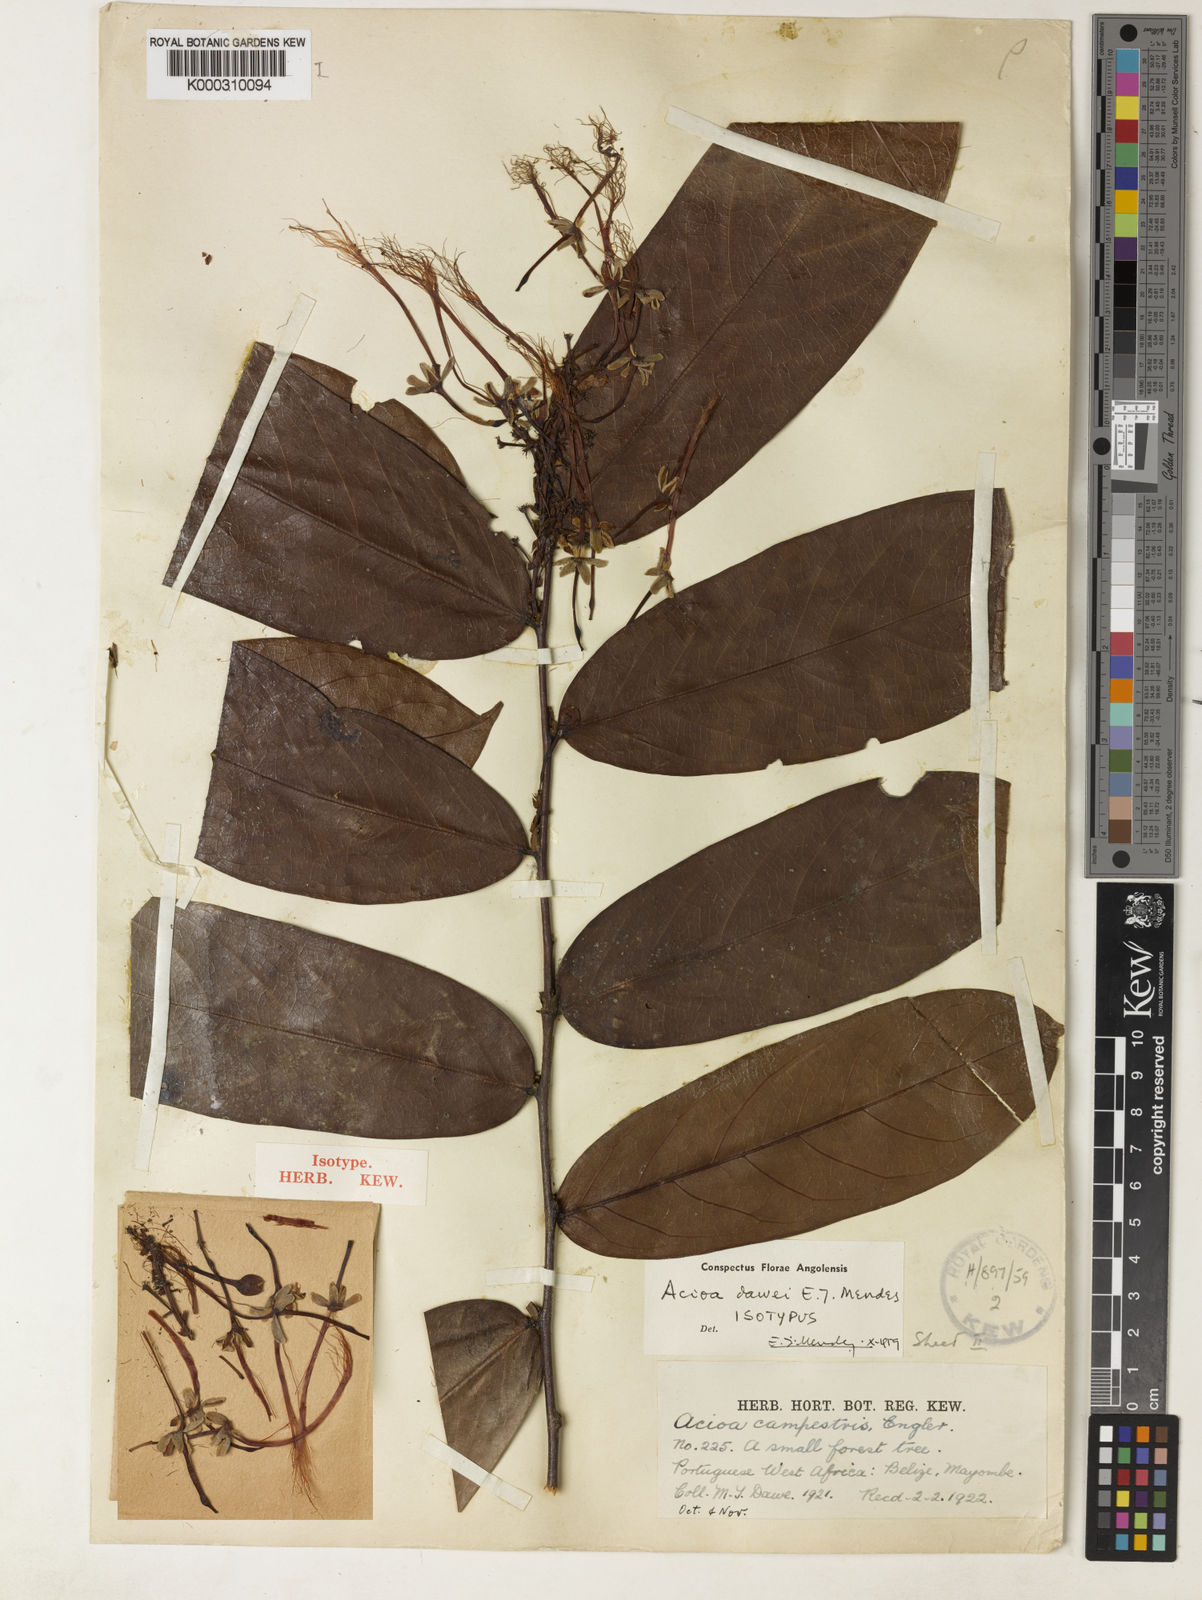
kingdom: Plantae
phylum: Tracheophyta
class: Magnoliopsida
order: Malpighiales
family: Chrysobalanaceae
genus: Dactyladenia
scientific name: Dactyladenia campestris
